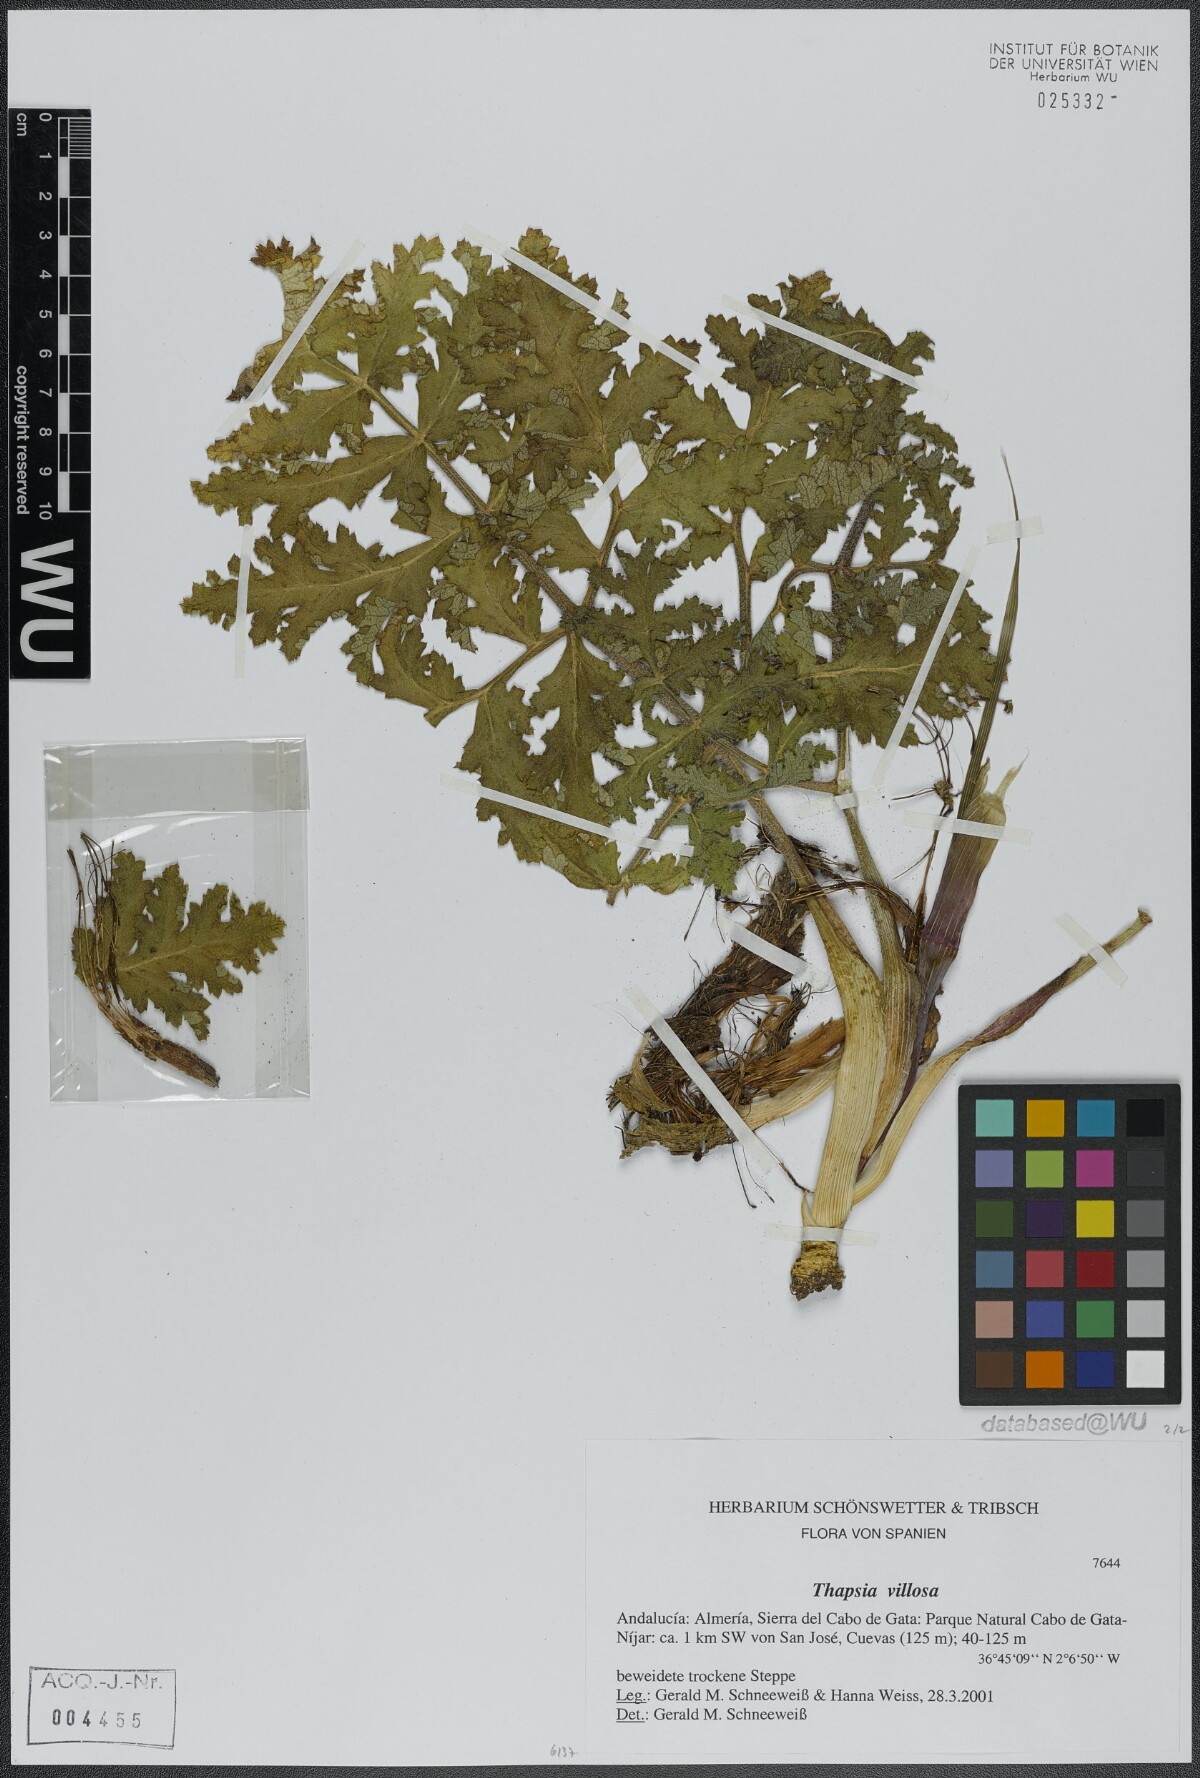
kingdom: Plantae
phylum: Tracheophyta
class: Magnoliopsida
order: Apiales
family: Apiaceae
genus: Thapsia
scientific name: Thapsia villosa
